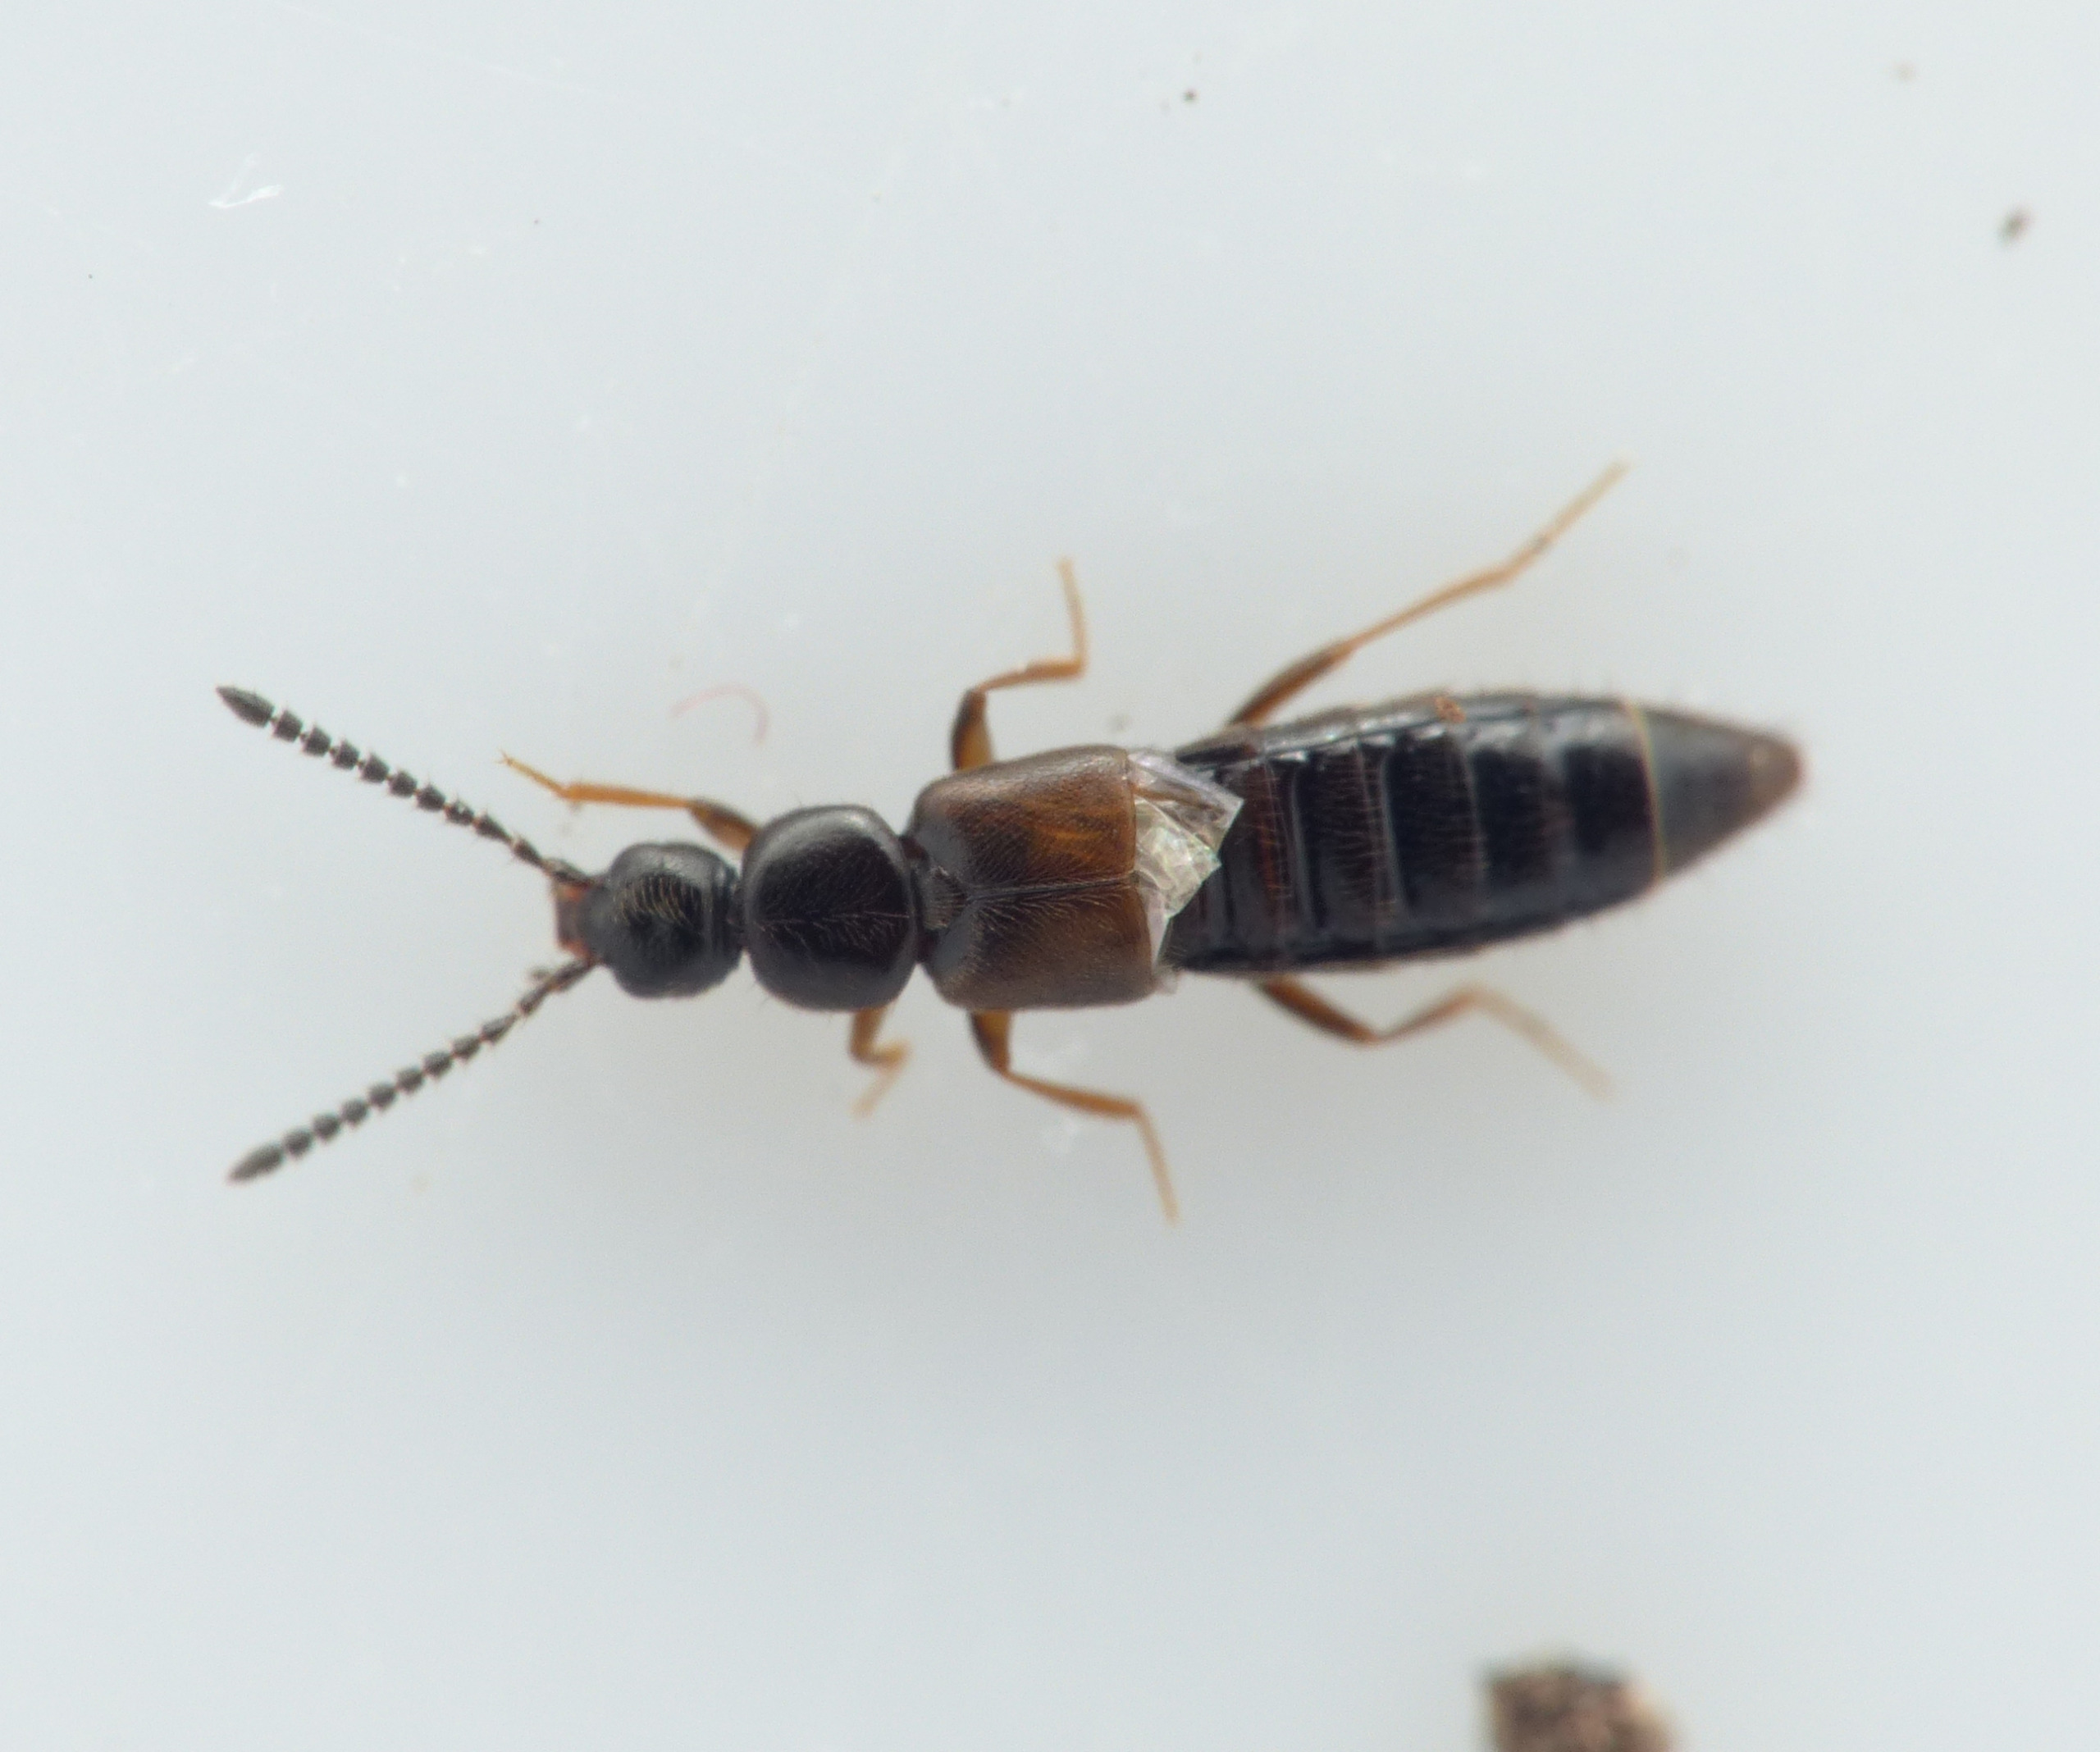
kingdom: Animalia
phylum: Arthropoda
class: Insecta
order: Coleoptera
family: Staphylinidae
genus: Liogluta
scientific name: Liogluta microptera
